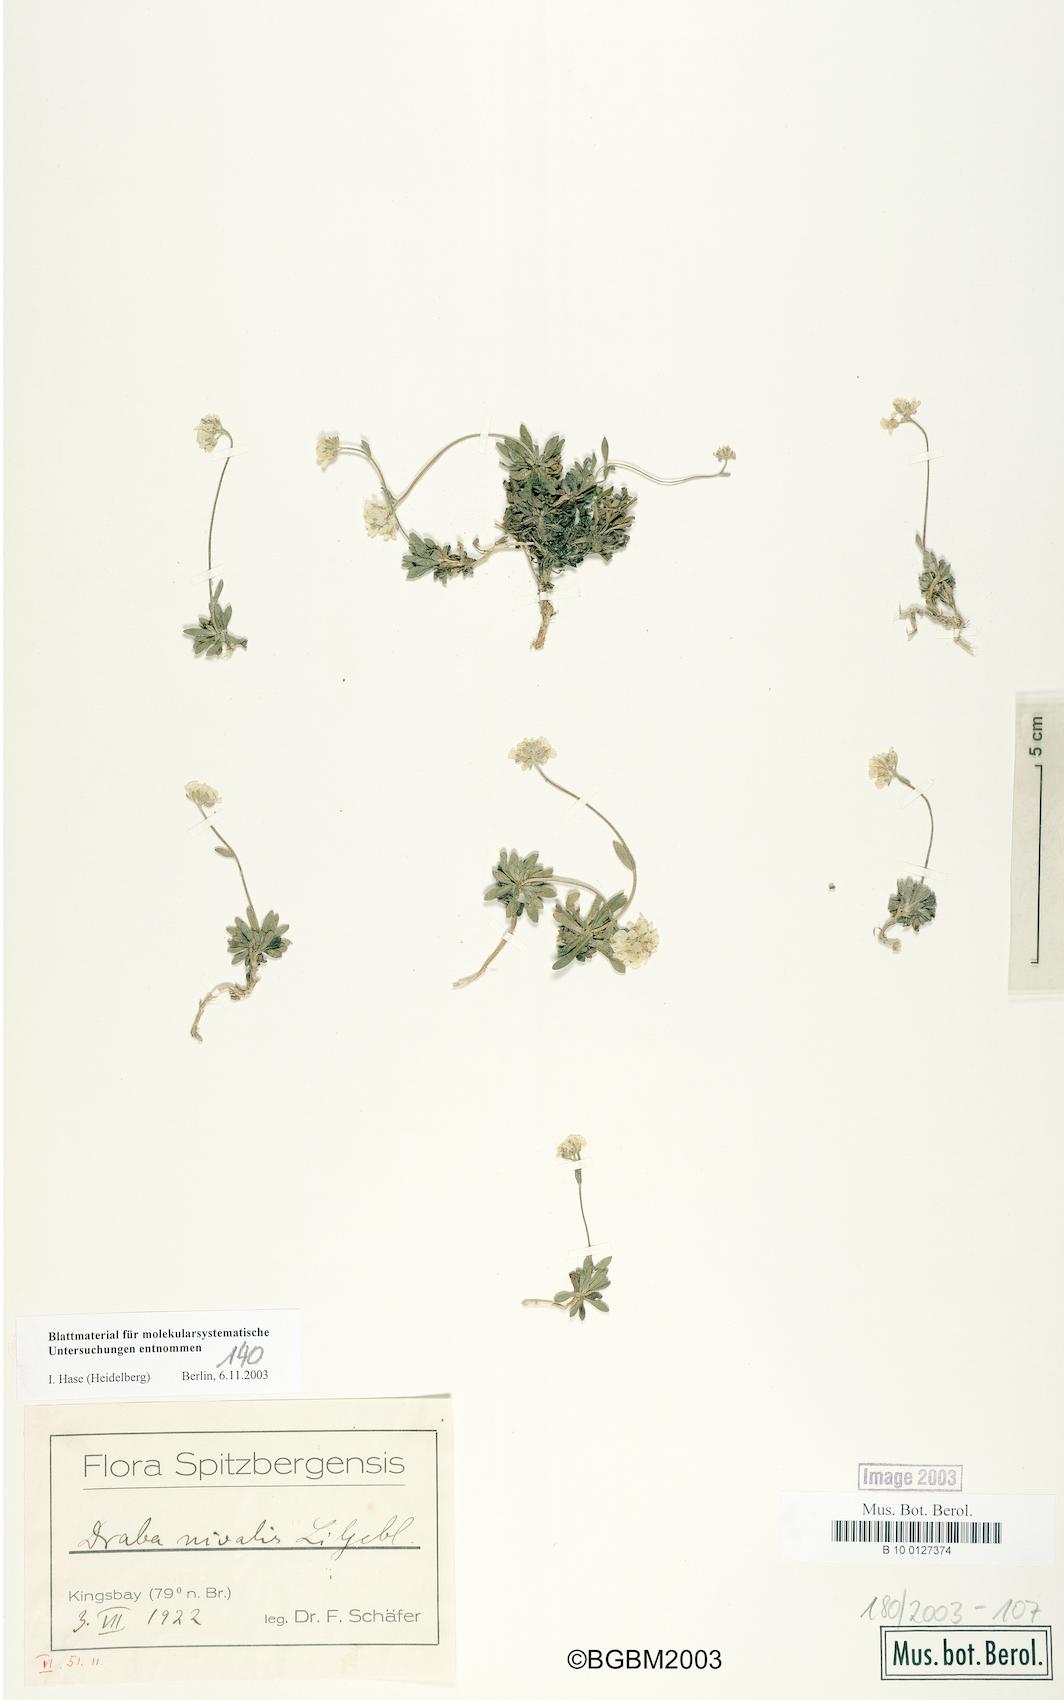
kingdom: Plantae
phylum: Tracheophyta
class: Magnoliopsida
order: Brassicales
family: Brassicaceae
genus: Draba
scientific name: Draba nivalis
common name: Snow draba
